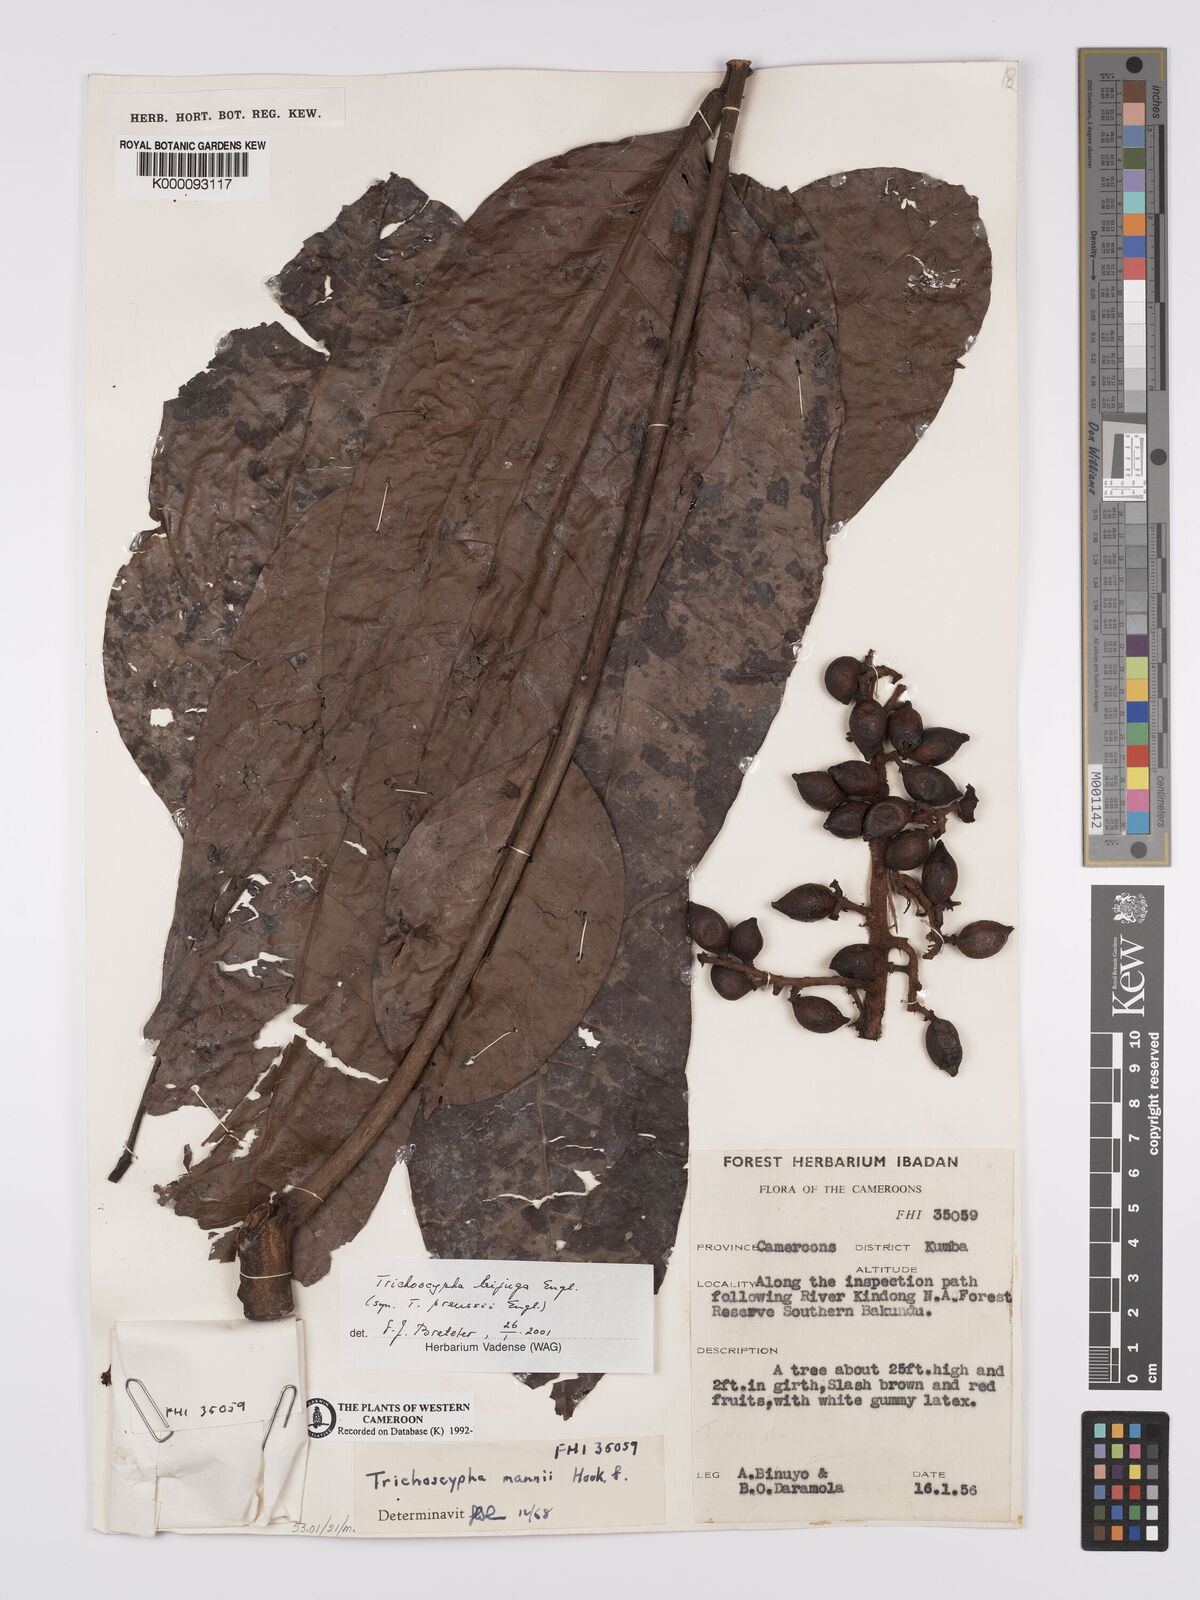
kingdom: Plantae
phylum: Tracheophyta
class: Magnoliopsida
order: Sapindales
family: Anacardiaceae
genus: Trichoscypha
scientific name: Trichoscypha mannii
